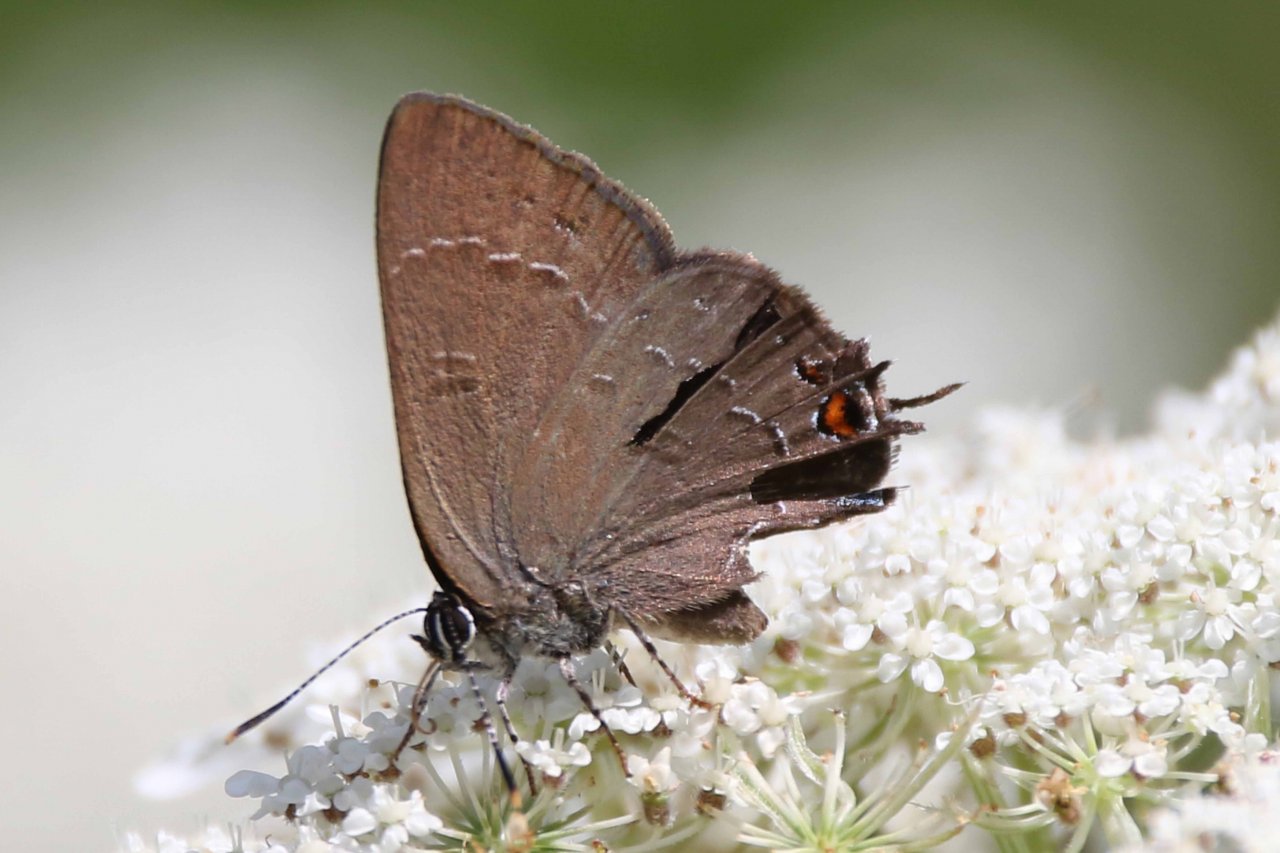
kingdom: Animalia
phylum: Arthropoda
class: Insecta
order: Lepidoptera
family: Lycaenidae
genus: Satyrium
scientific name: Satyrium calanus
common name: Banded Hairstreak
